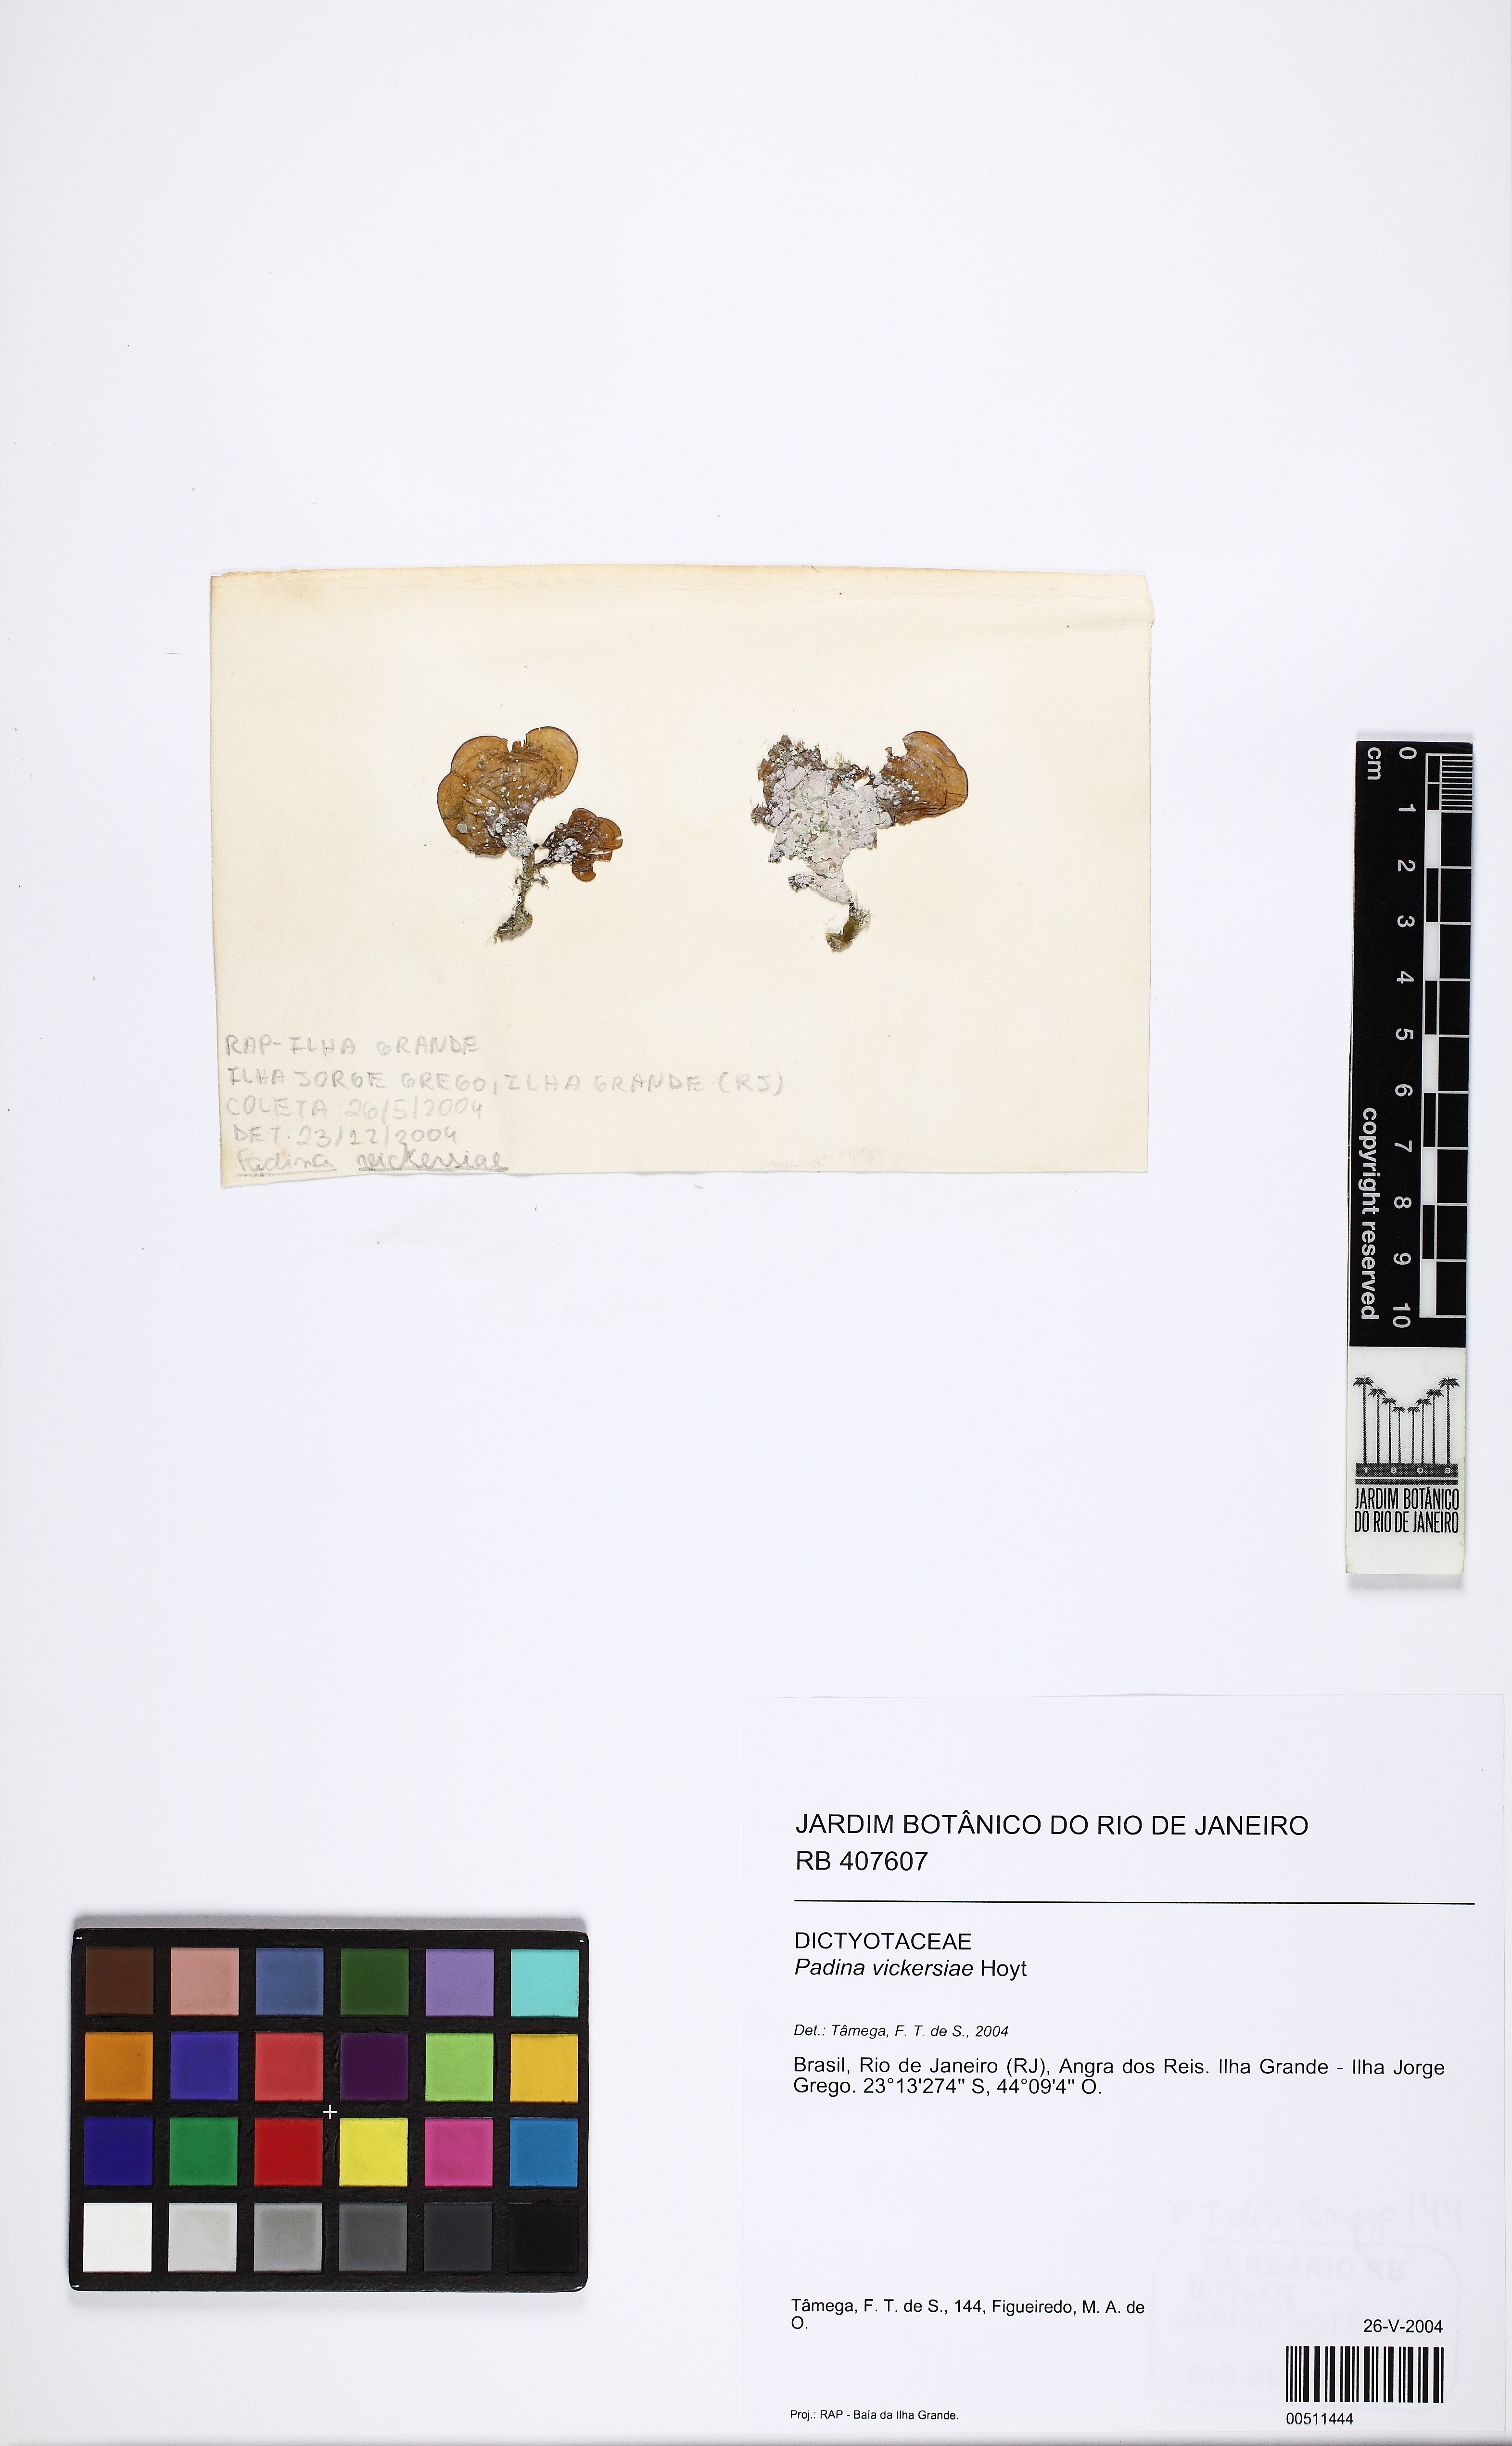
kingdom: Chromista
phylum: Ochrophyta
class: Phaeophyceae
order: Dictyotales
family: Dictyotaceae
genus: Padina
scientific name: Padina gymnospora
